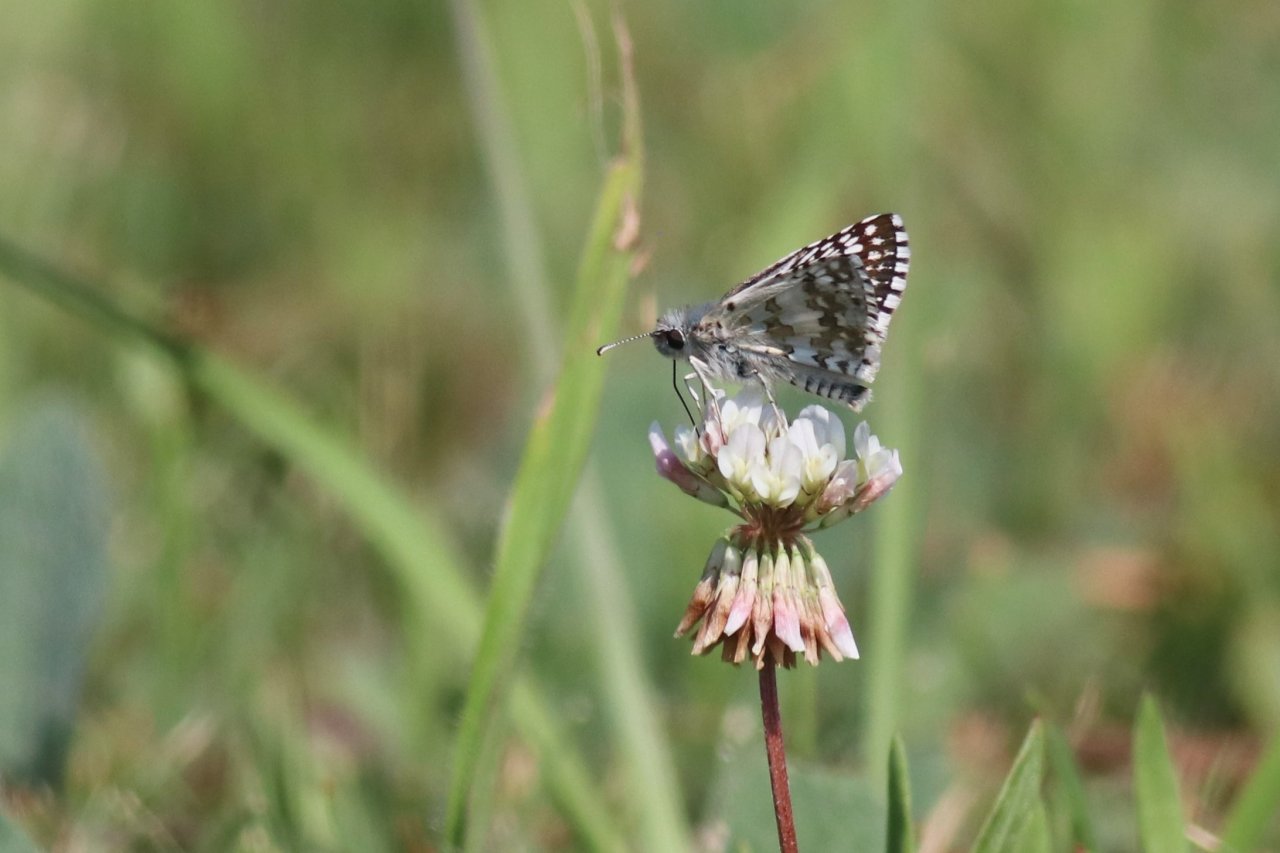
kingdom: Animalia
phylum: Arthropoda
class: Insecta
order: Lepidoptera
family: Hesperiidae
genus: Pyrgus
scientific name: Pyrgus communis
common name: Common Checkered-Skipper
